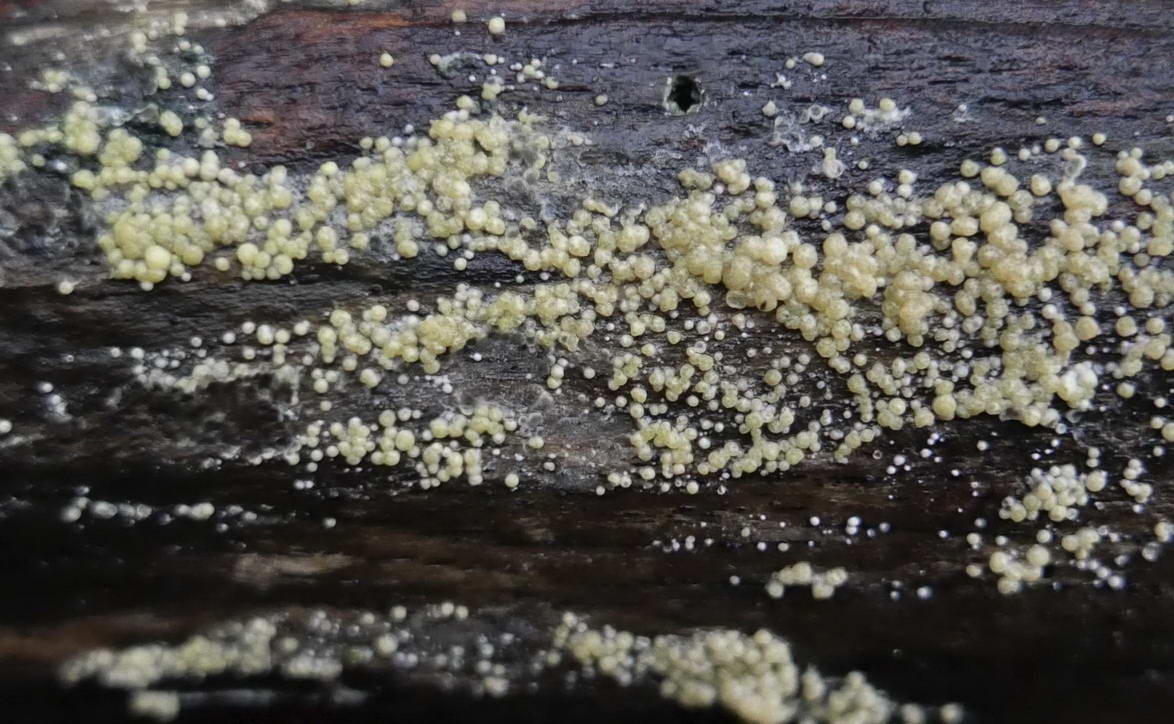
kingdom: Fungi
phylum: Ascomycota
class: Sordariomycetes
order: Hypocreales
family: Hypocreaceae
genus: Trichoderma
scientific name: Trichoderma gelatinosum
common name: geleagtig kødkerne
